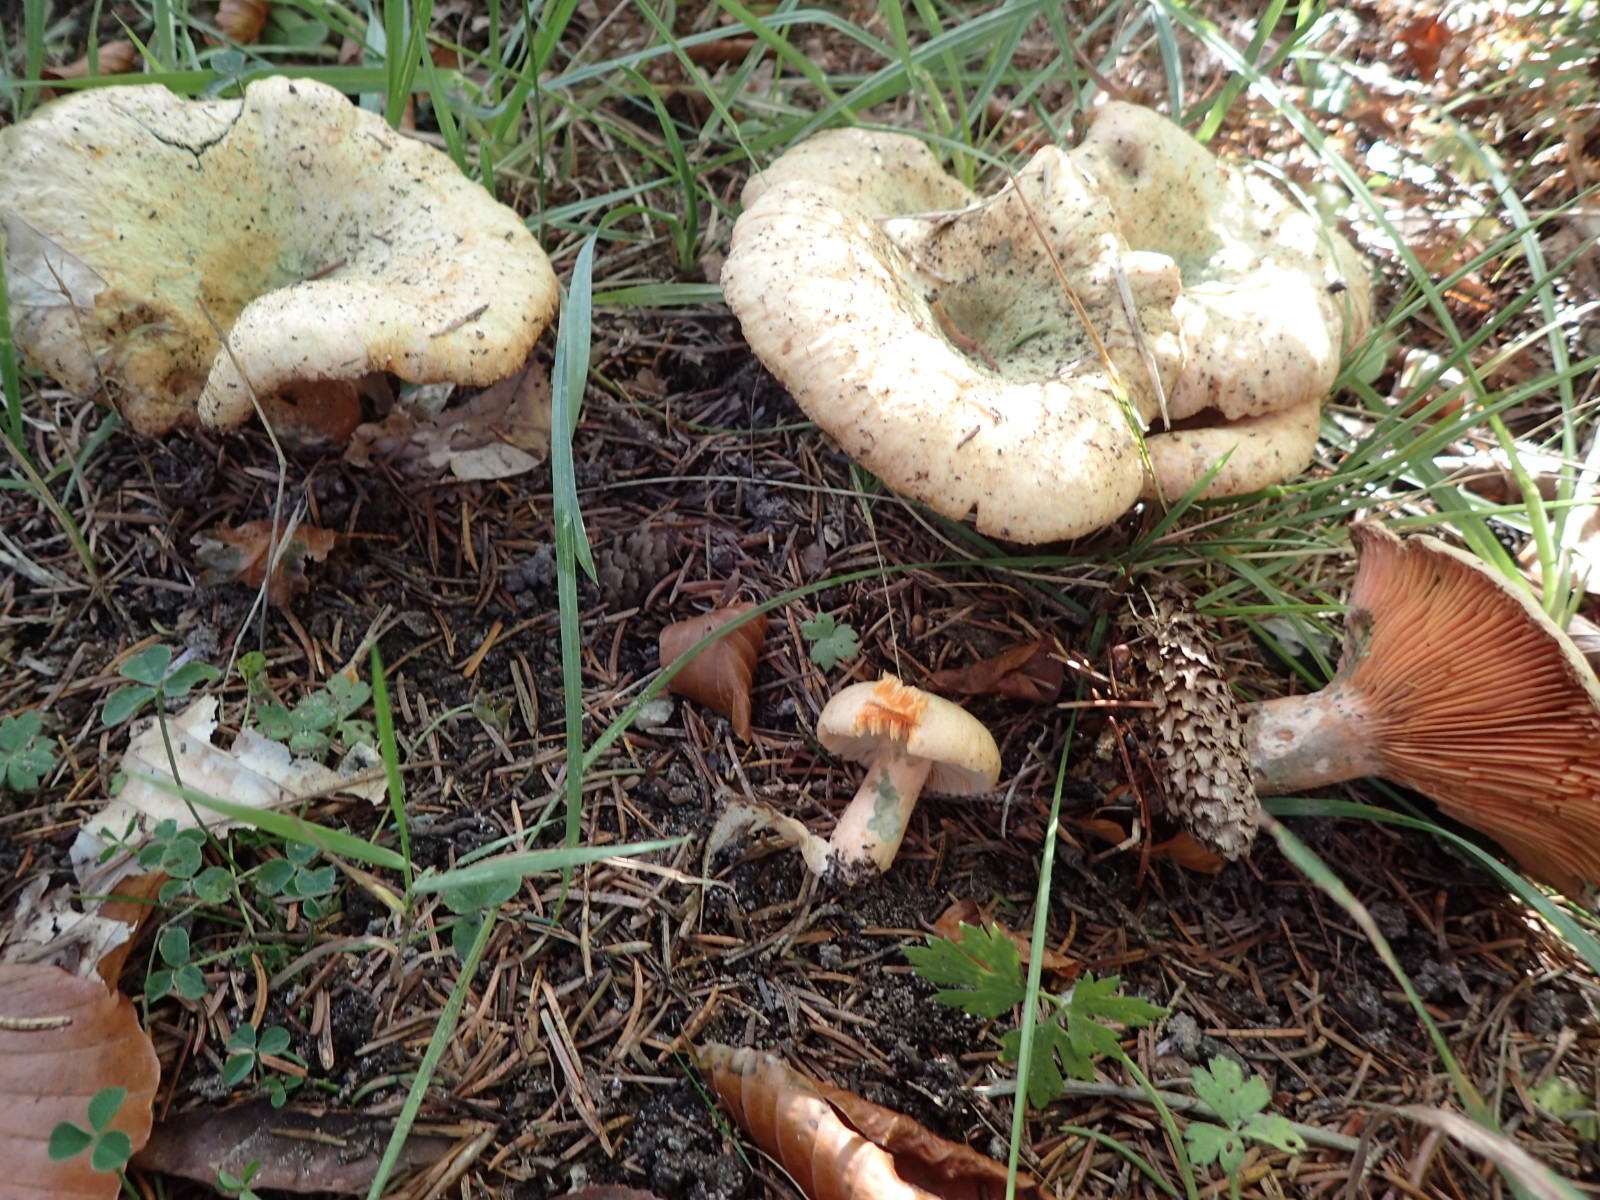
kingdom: Fungi
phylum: Basidiomycota
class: Agaricomycetes
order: Russulales
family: Russulaceae
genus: Lactarius
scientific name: Lactarius deterrimus
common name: gran-mælkehat
